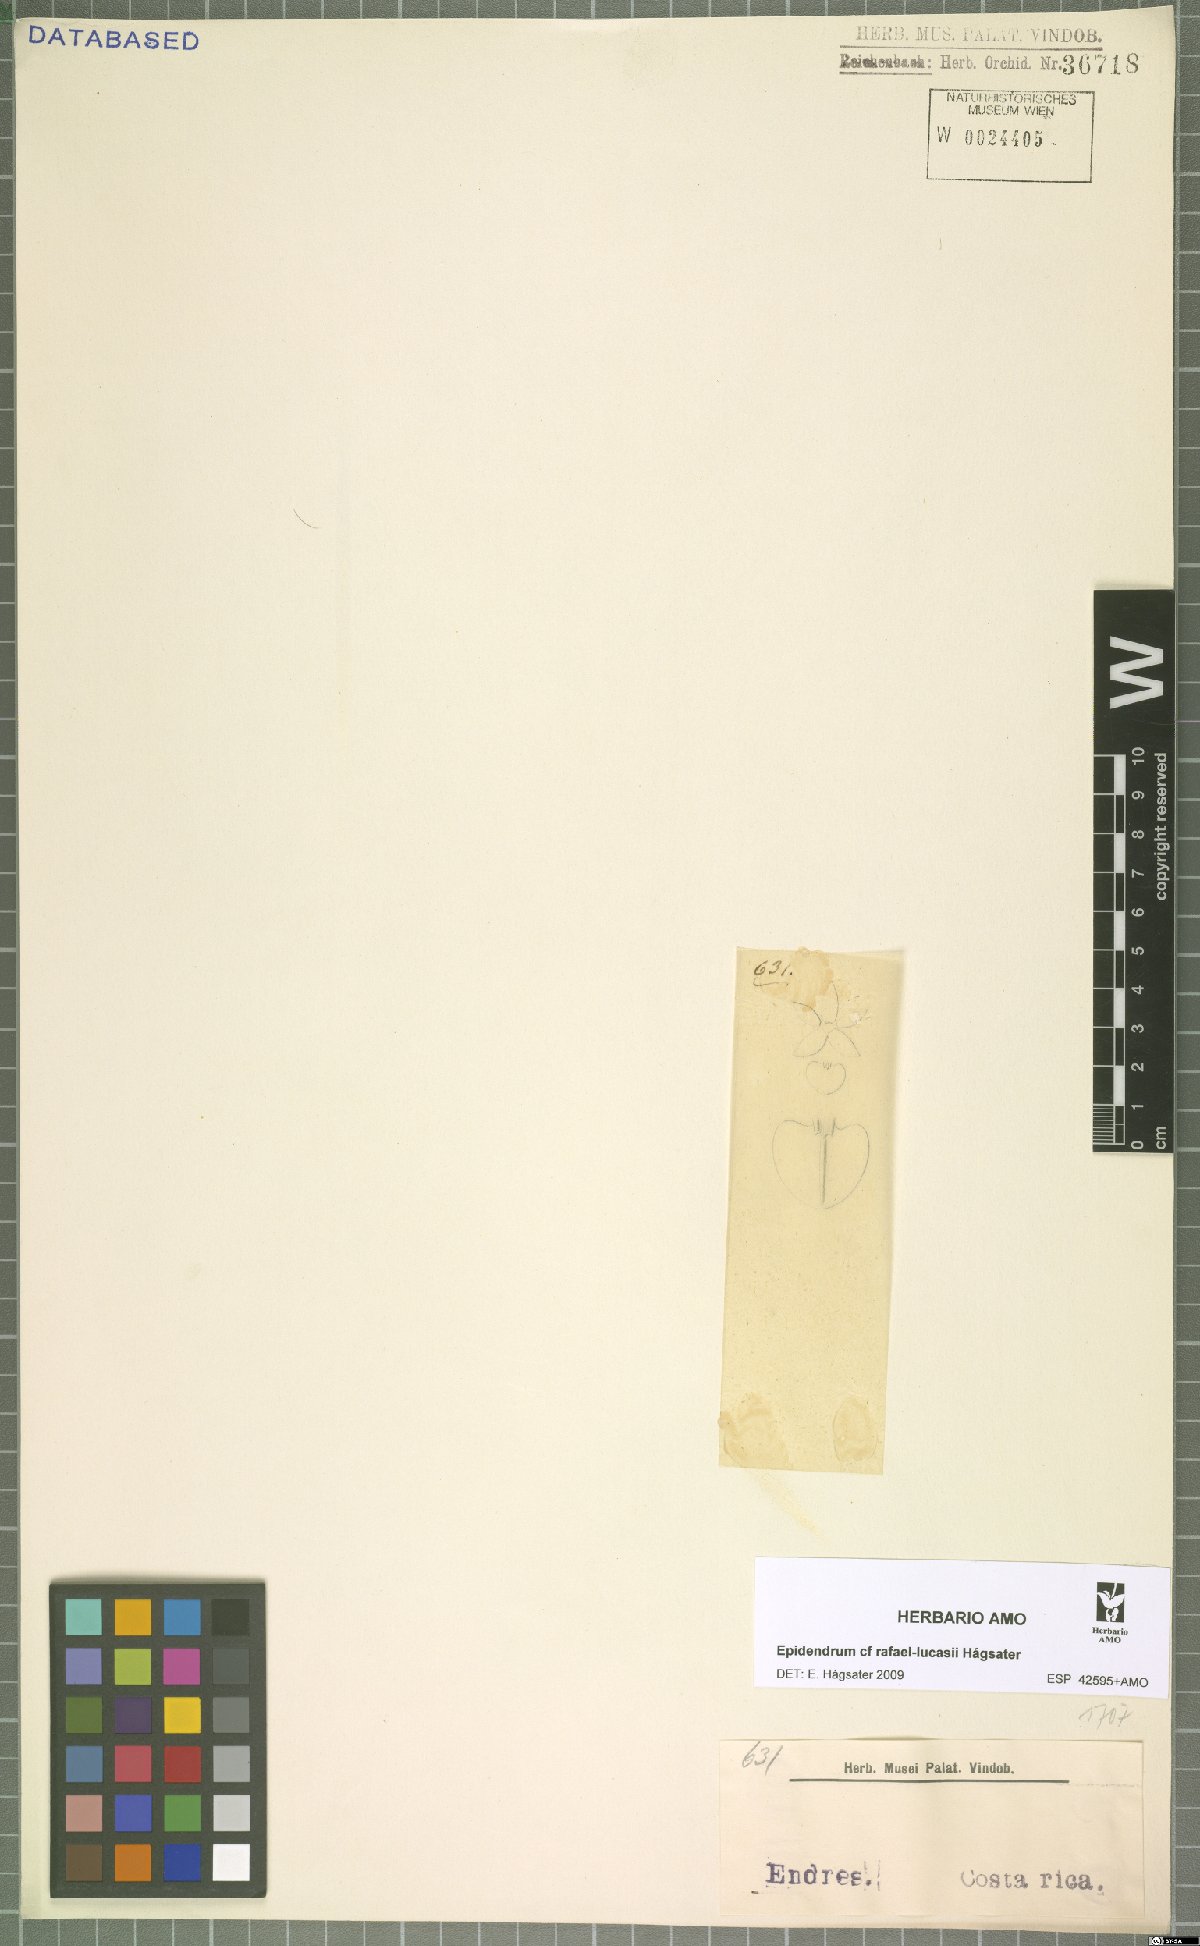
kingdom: Plantae
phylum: Tracheophyta
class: Liliopsida
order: Asparagales
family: Orchidaceae
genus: Epidendrum
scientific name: Epidendrum rafael-lucasii
